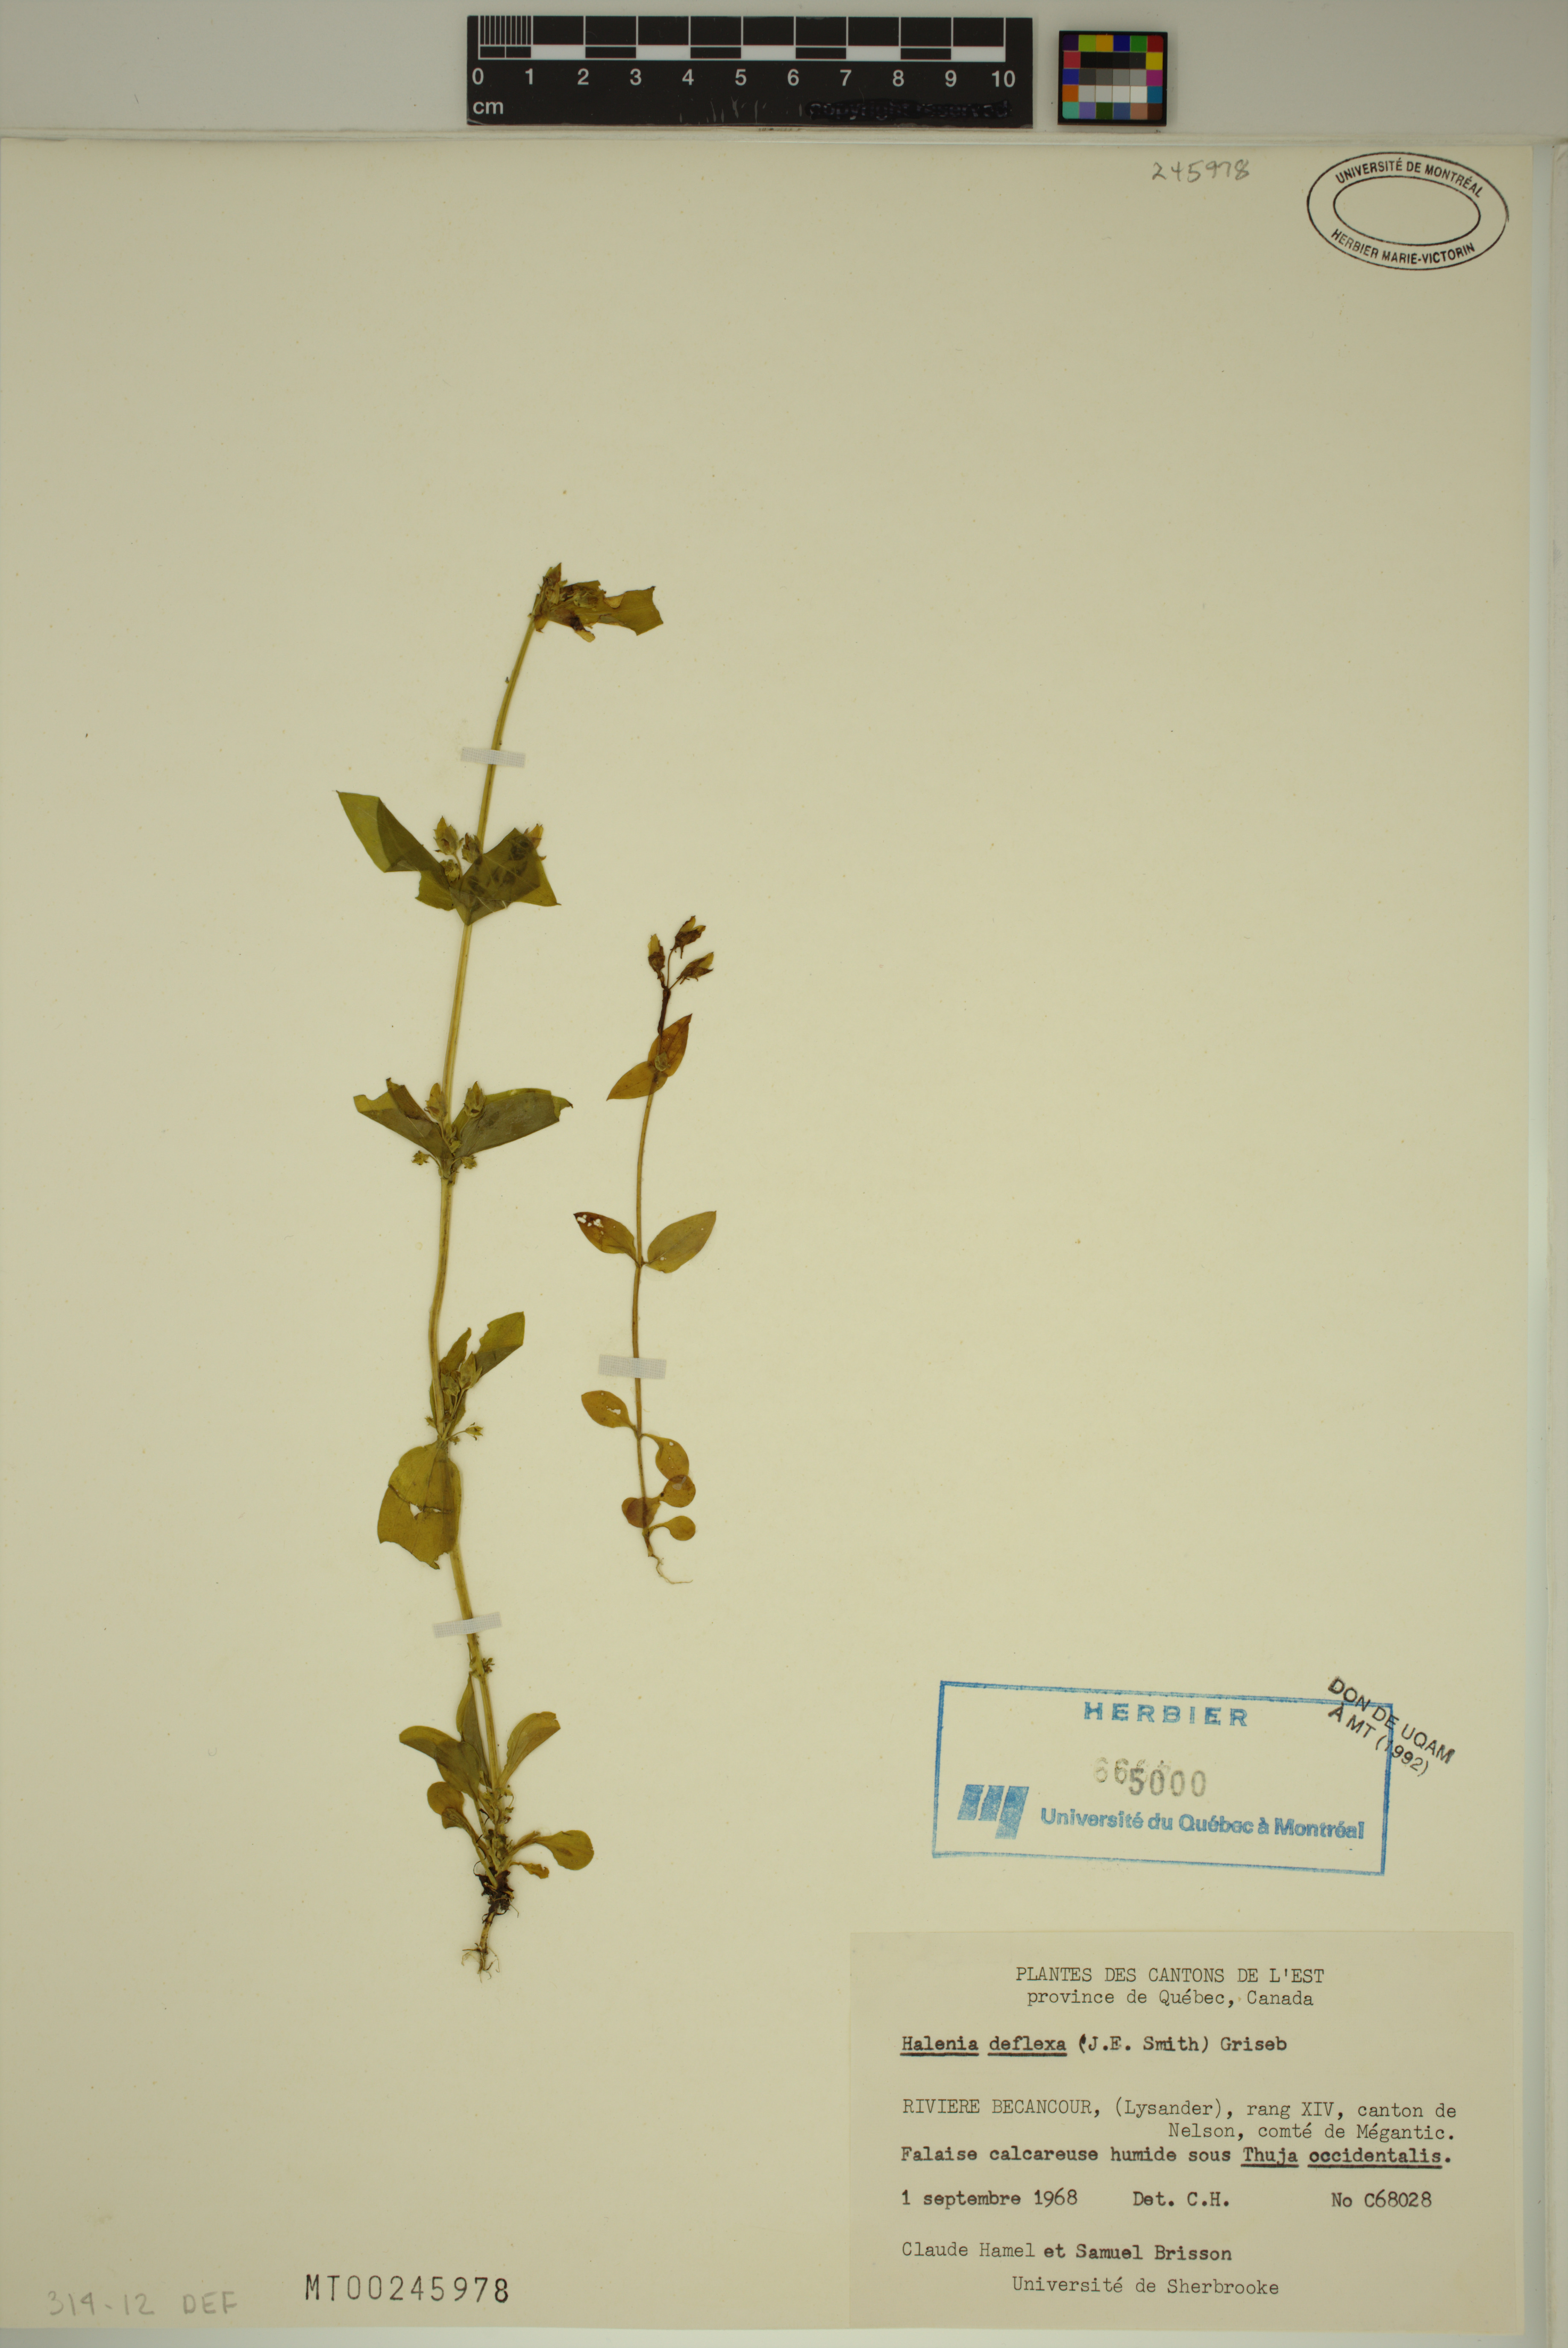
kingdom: Plantae
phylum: Tracheophyta
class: Magnoliopsida
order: Gentianales
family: Gentianaceae
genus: Halenia
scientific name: Halenia deflexa
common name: American spurred gentian
